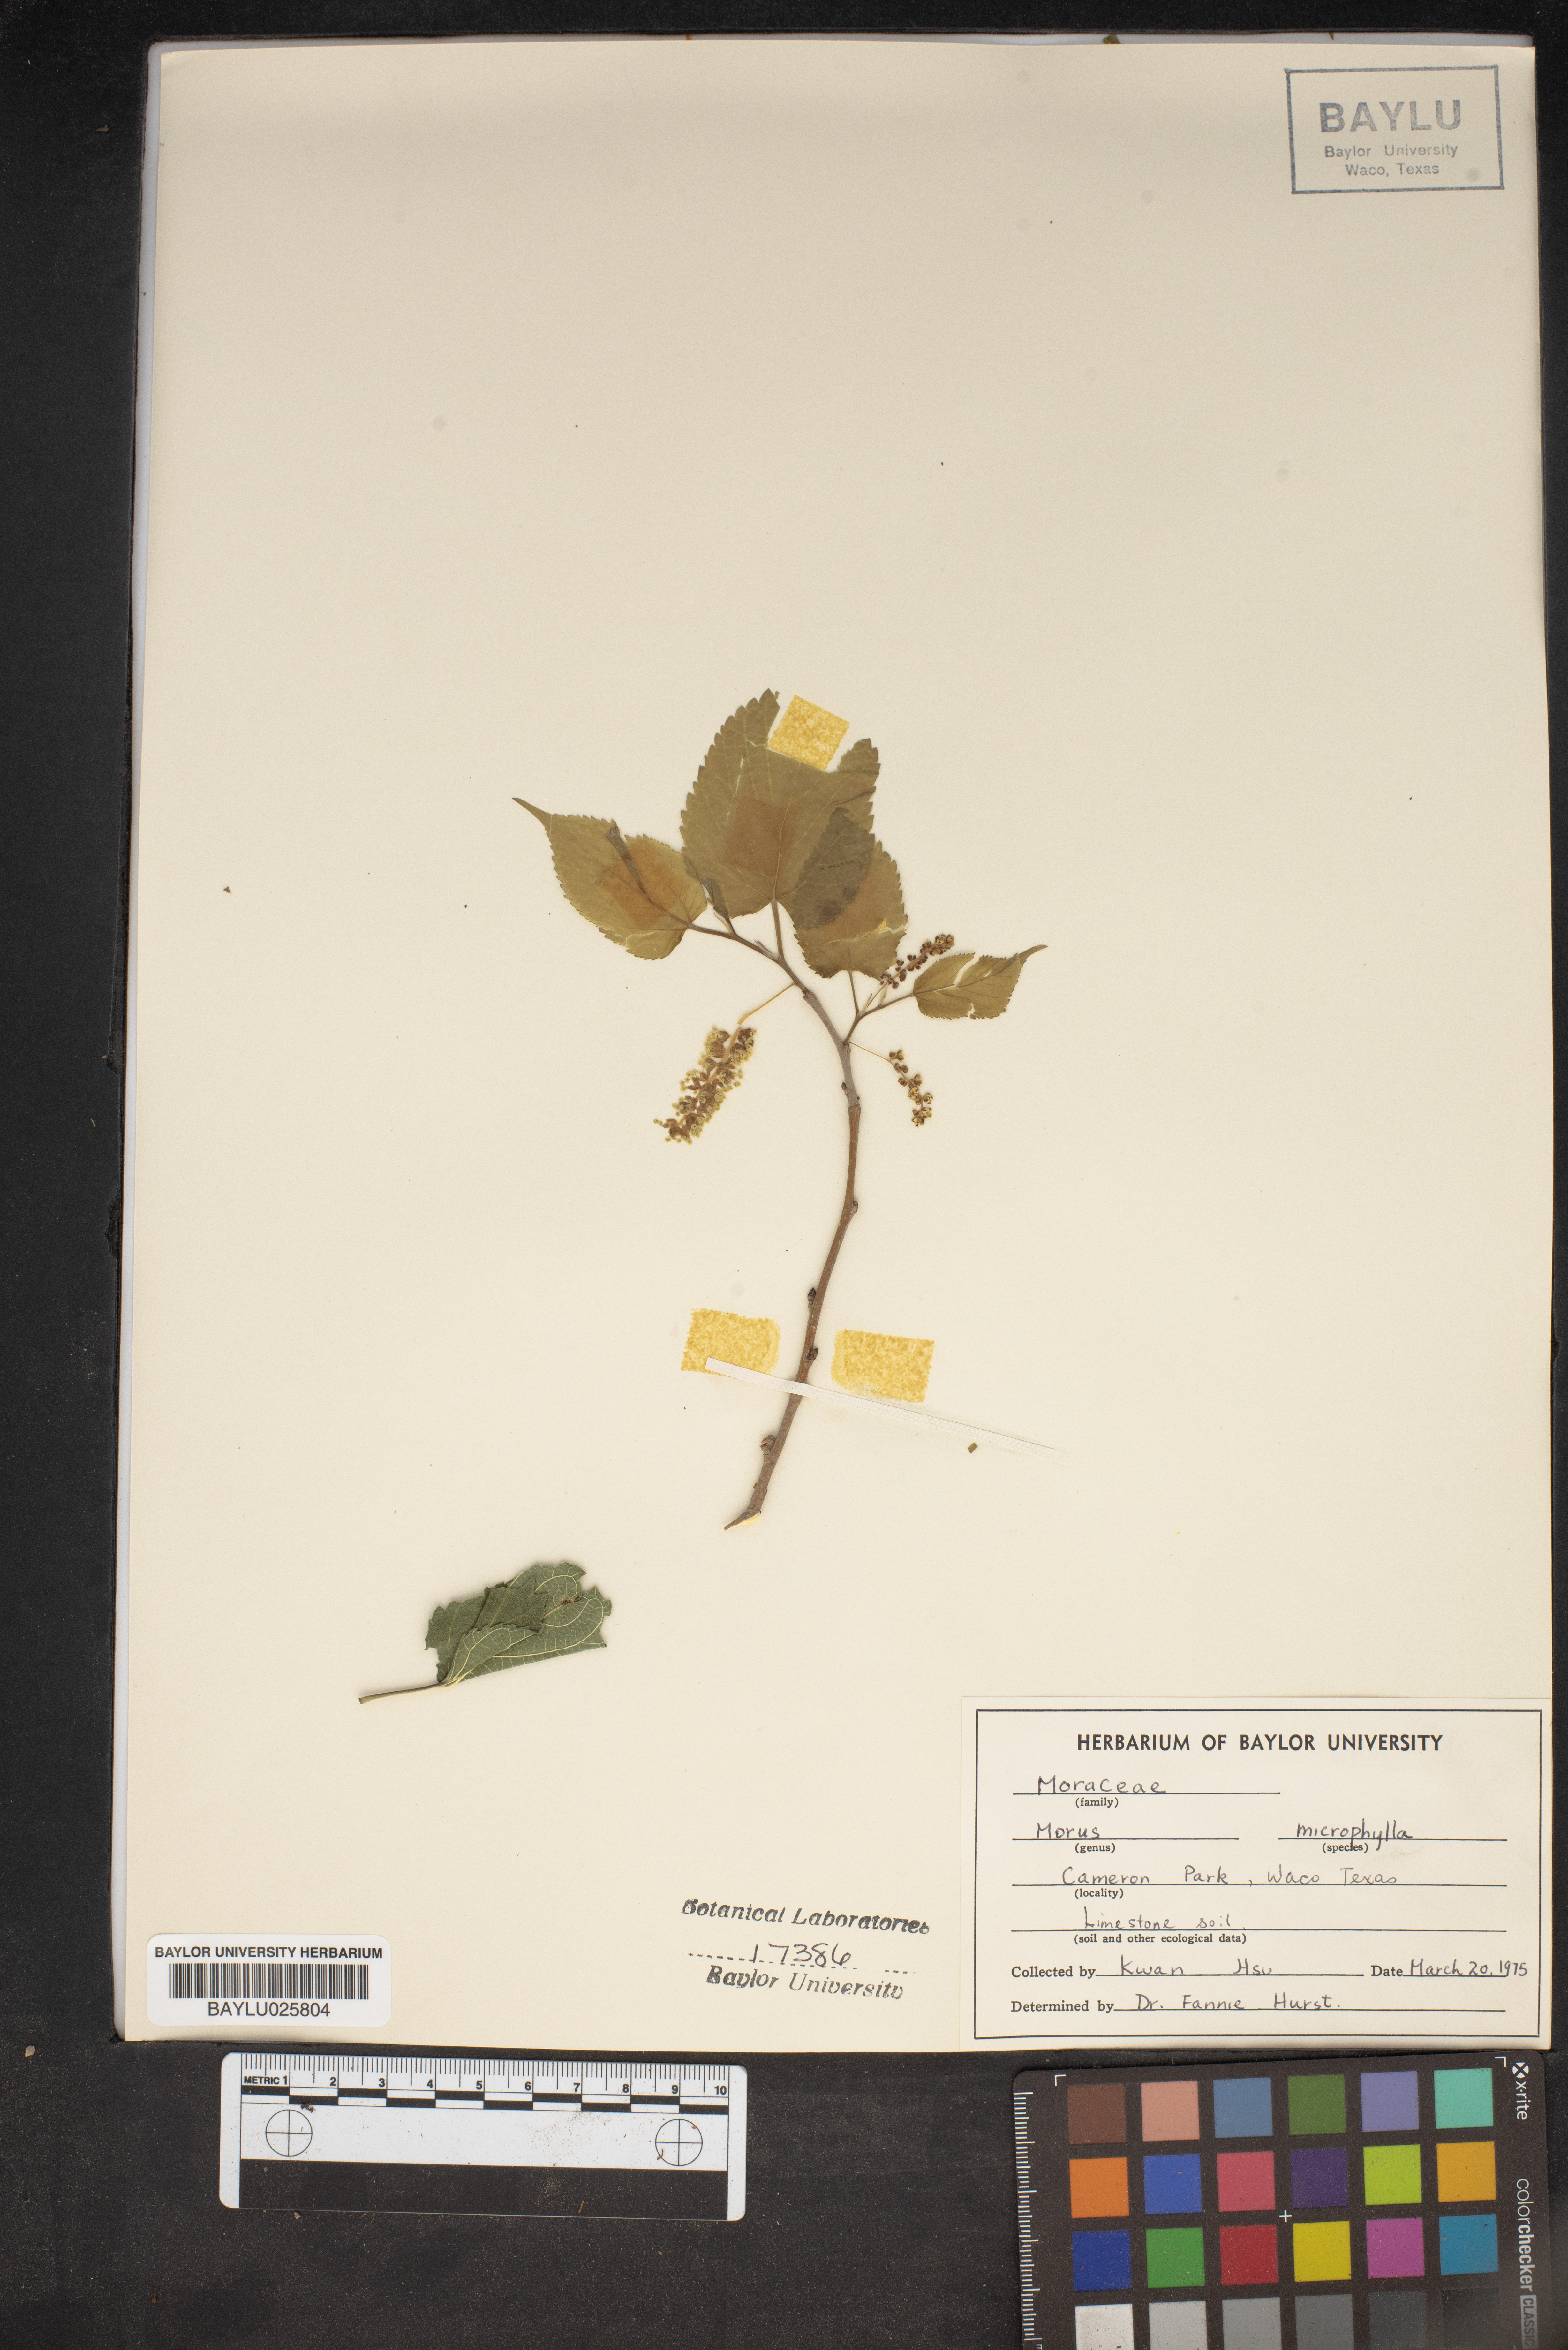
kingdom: Plantae
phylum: Tracheophyta
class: Magnoliopsida
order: Rosales
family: Moraceae
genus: Morus
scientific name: Morus microphylla
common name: Mexican mulberry
